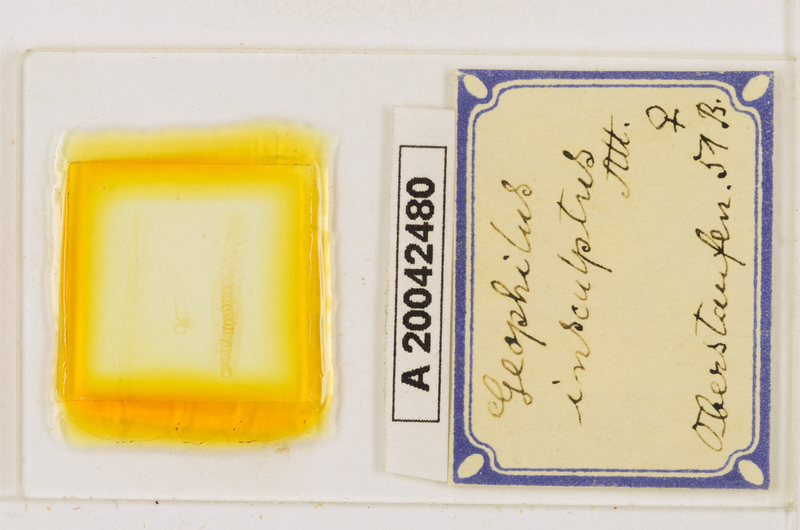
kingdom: Animalia
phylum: Arthropoda
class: Chilopoda
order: Geophilomorpha
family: Geophilidae
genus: Geophilus
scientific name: Geophilus insculptus
